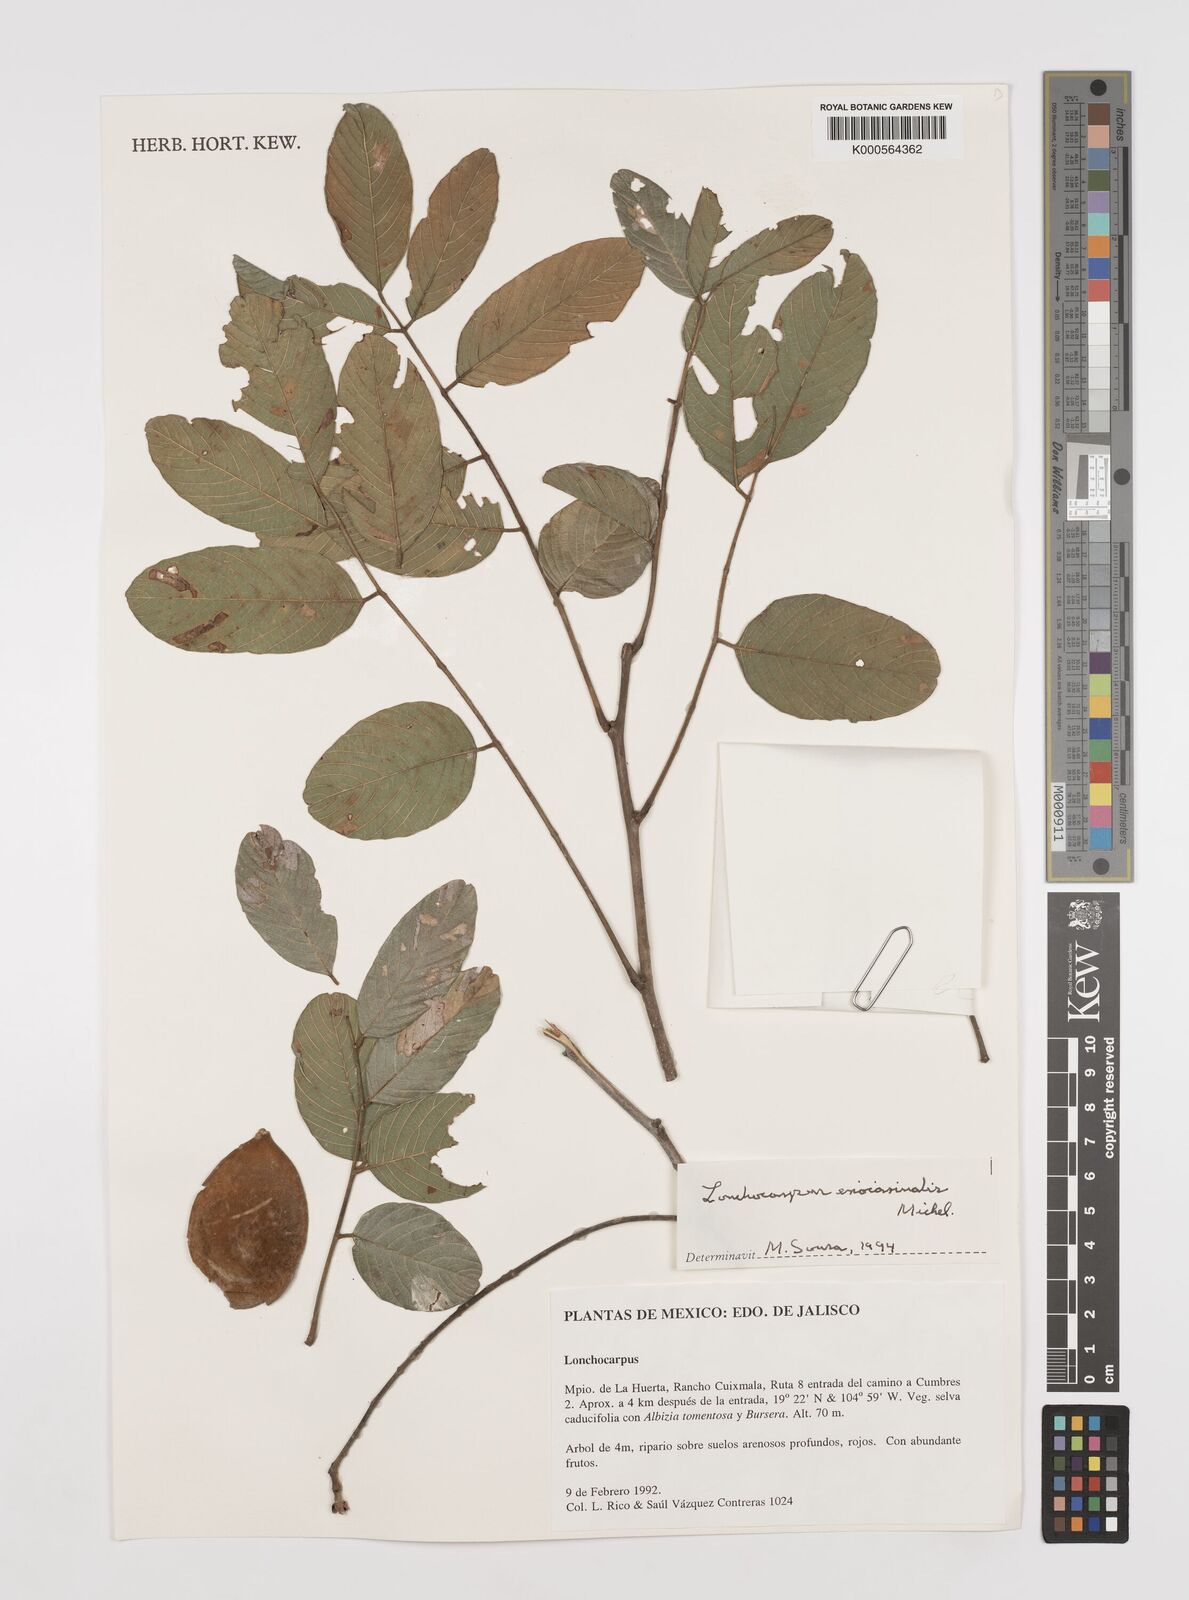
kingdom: Plantae
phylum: Tracheophyta
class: Magnoliopsida
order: Fabales
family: Fabaceae
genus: Lonchocarpus
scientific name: Lonchocarpus eriocarinalis
